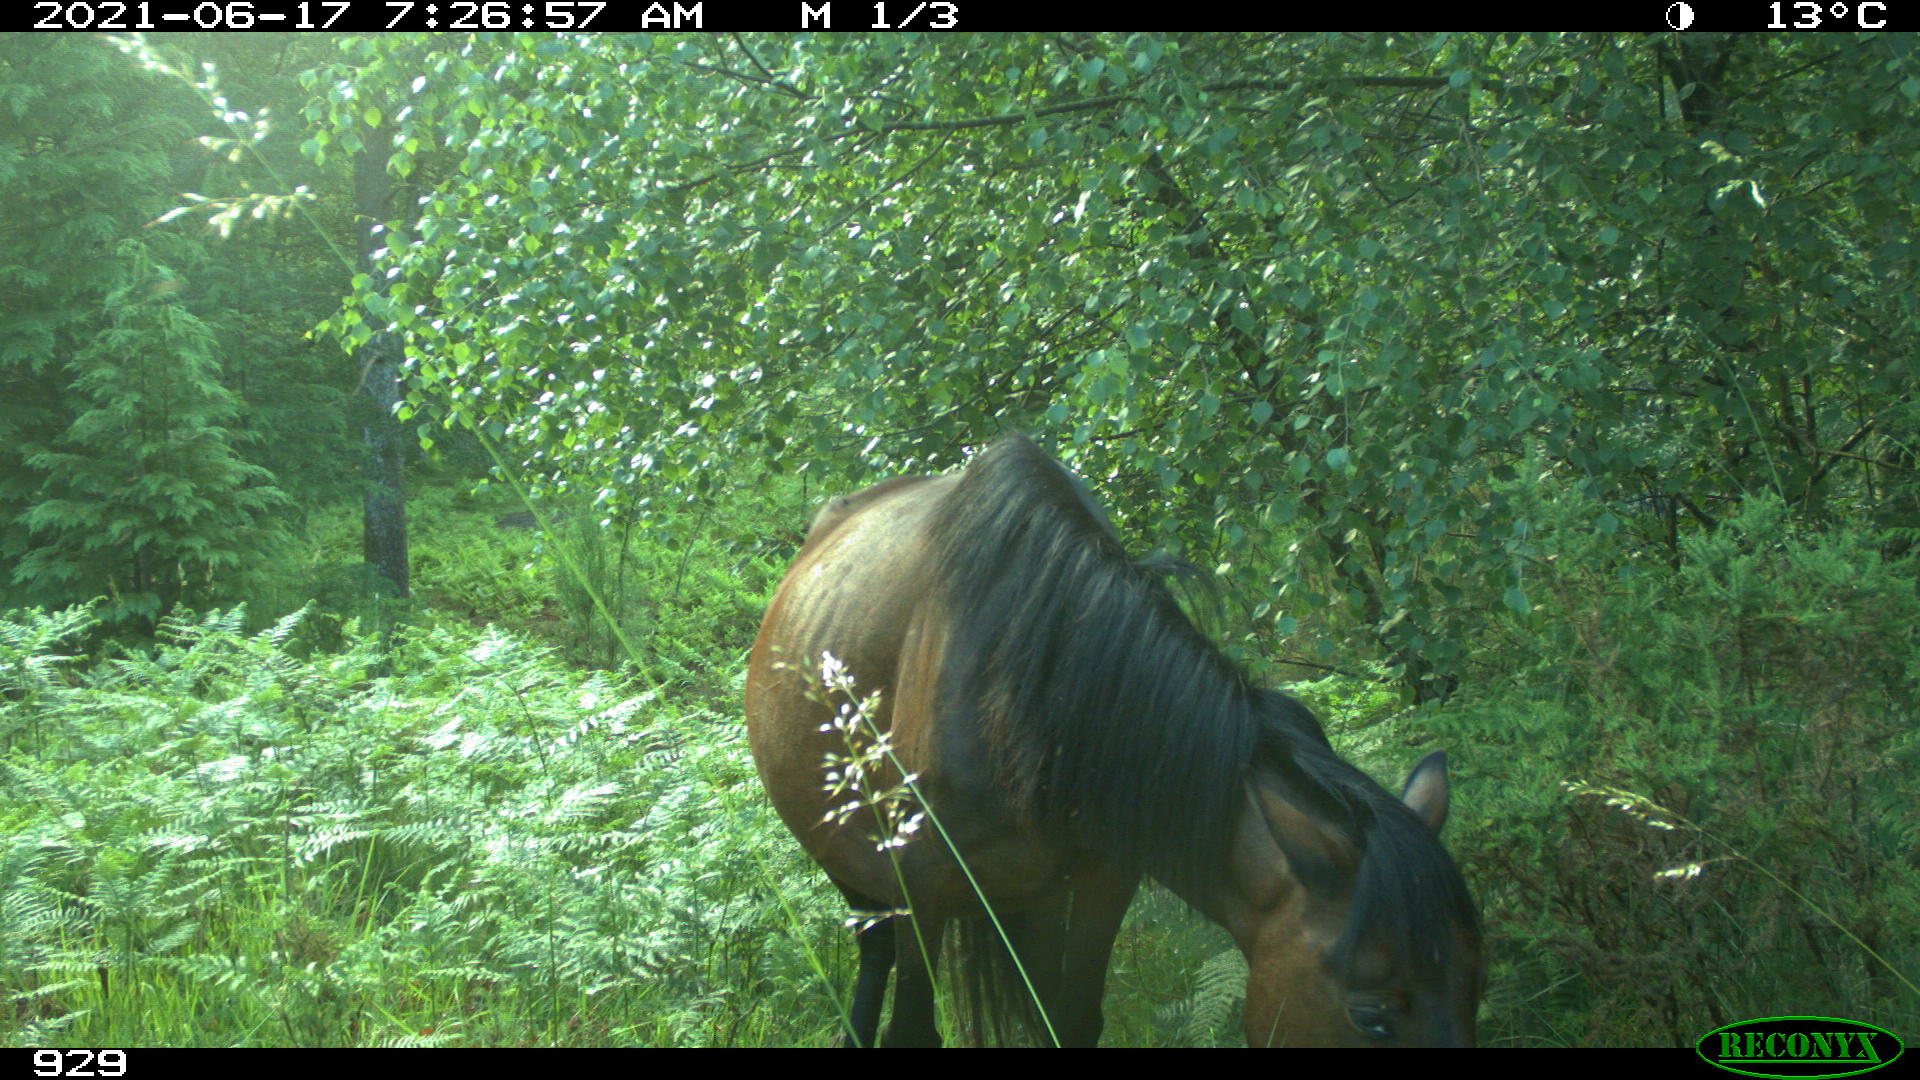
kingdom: Animalia
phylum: Chordata
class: Mammalia
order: Perissodactyla
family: Equidae
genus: Equus
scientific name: Equus caballus
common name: Horse
